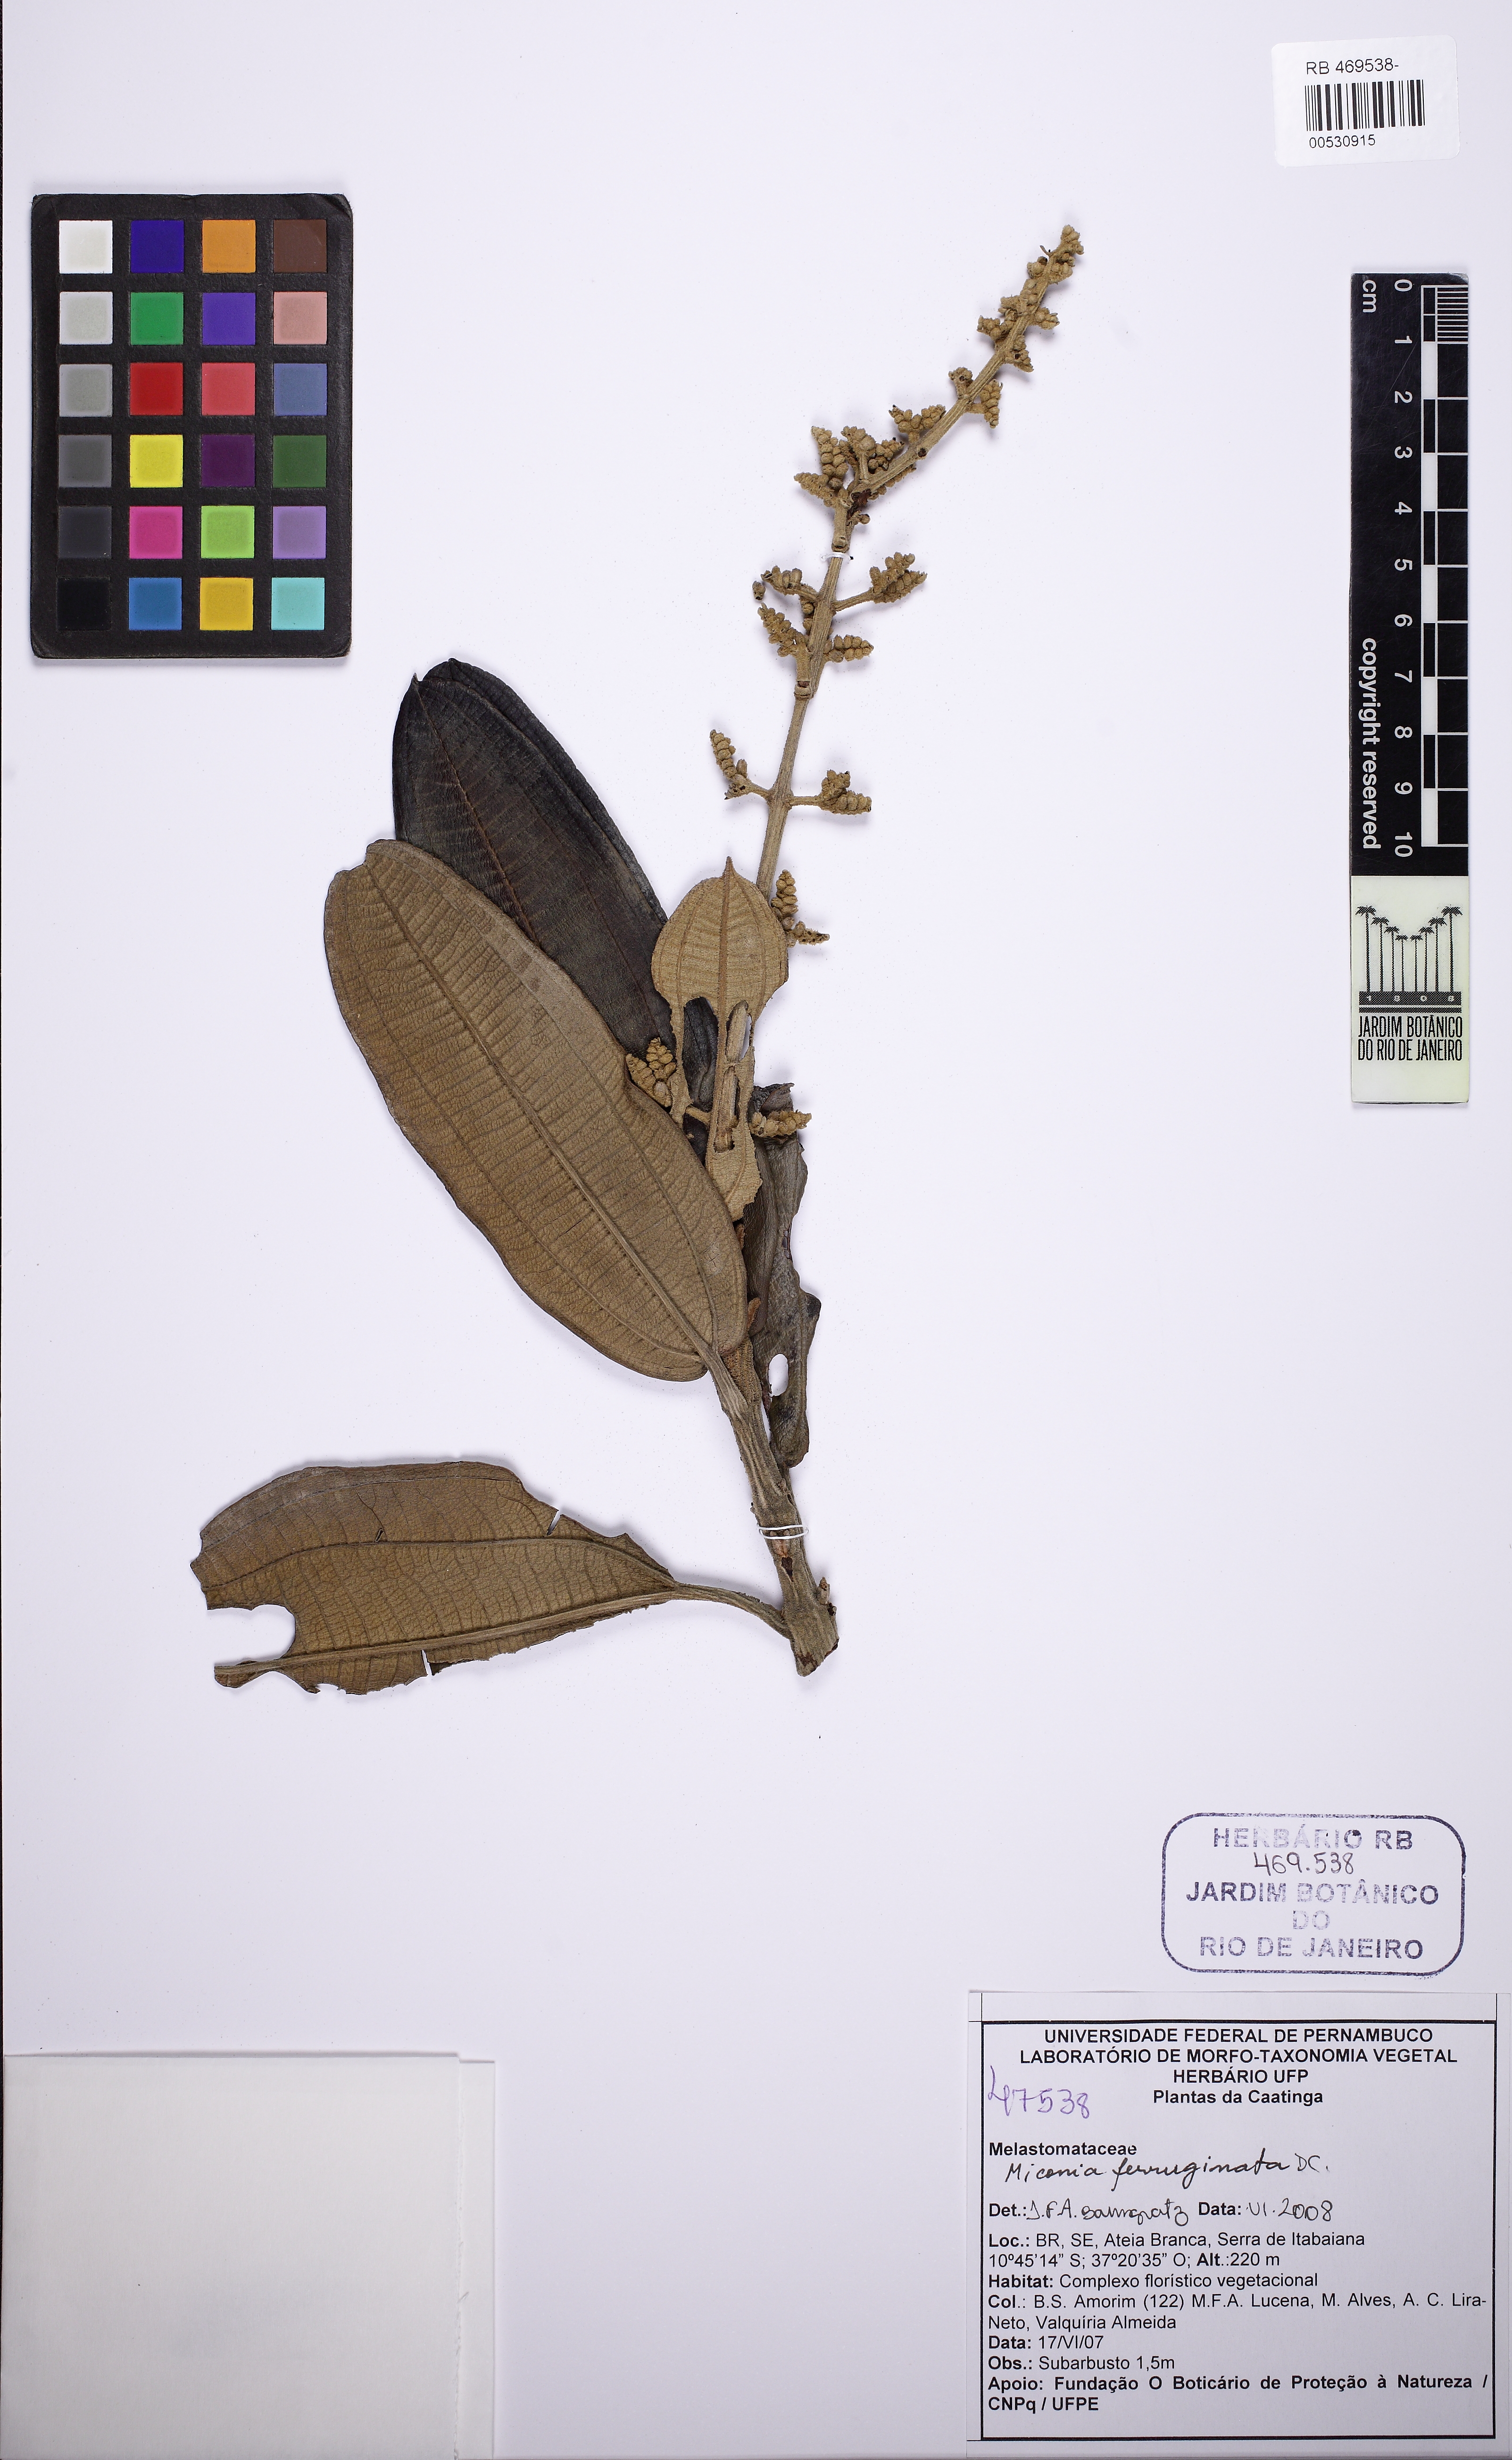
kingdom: Plantae
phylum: Tracheophyta
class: Magnoliopsida
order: Myrtales
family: Melastomataceae
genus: Miconia
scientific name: Miconia ferruginata
